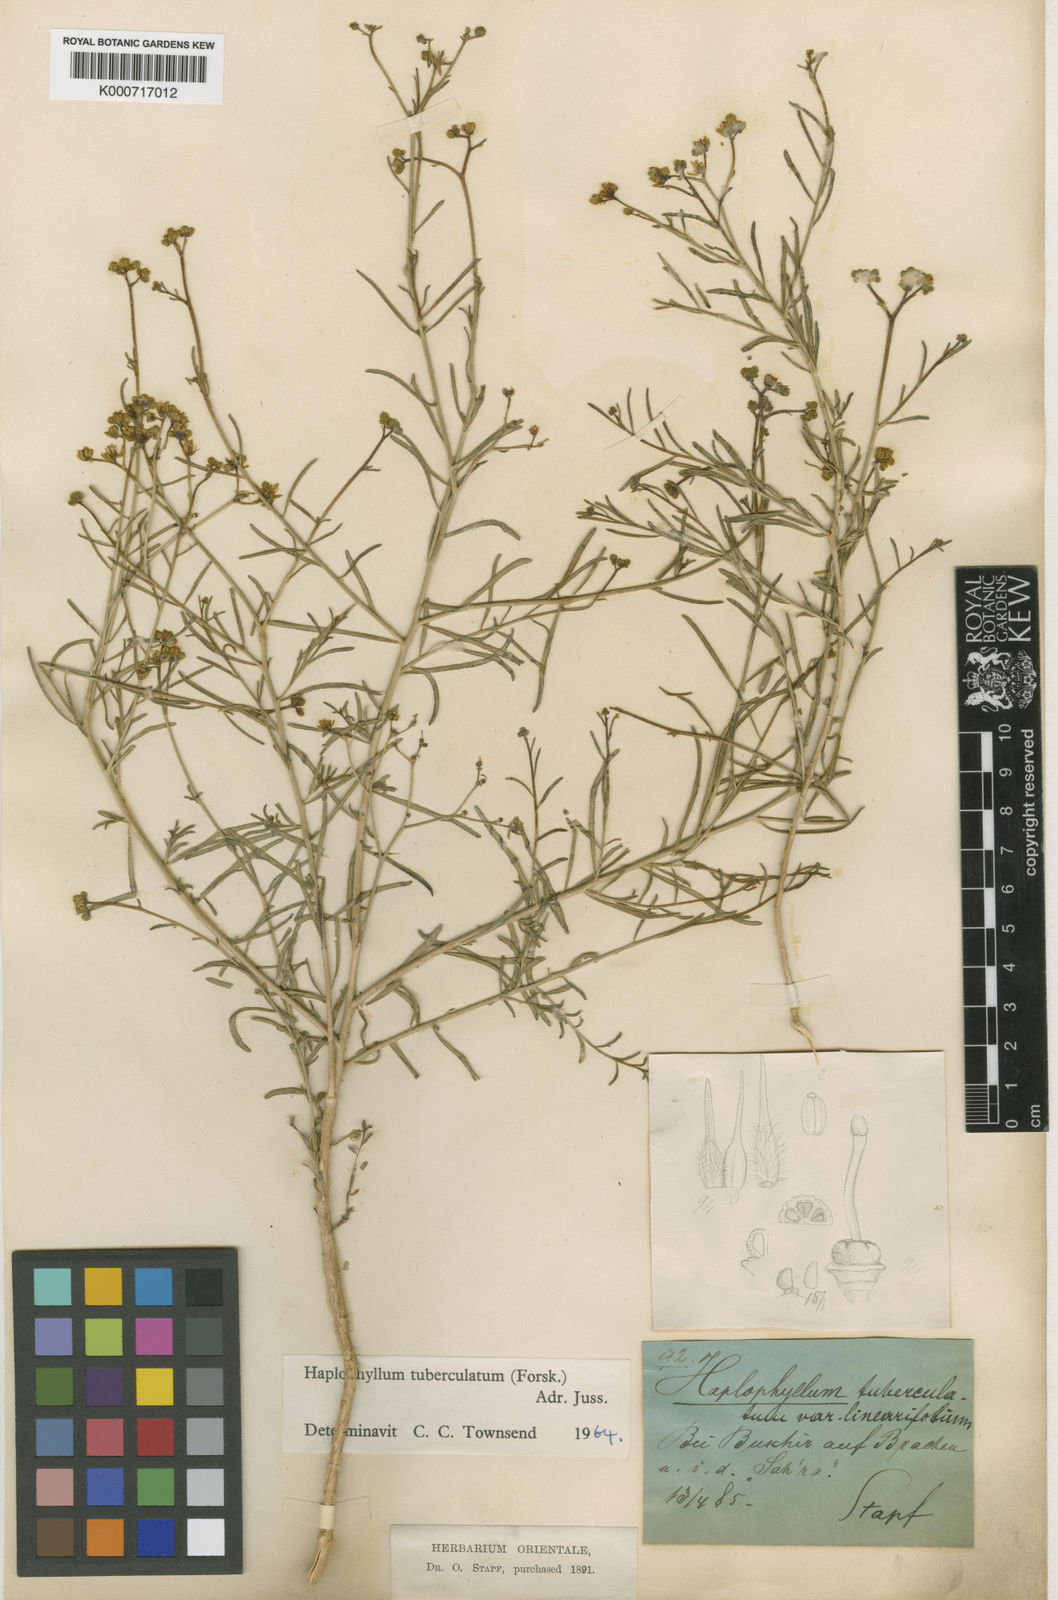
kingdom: Plantae
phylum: Tracheophyta
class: Magnoliopsida
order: Sapindales
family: Rutaceae
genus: Haplophyllum
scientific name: Haplophyllum tuberculatum
